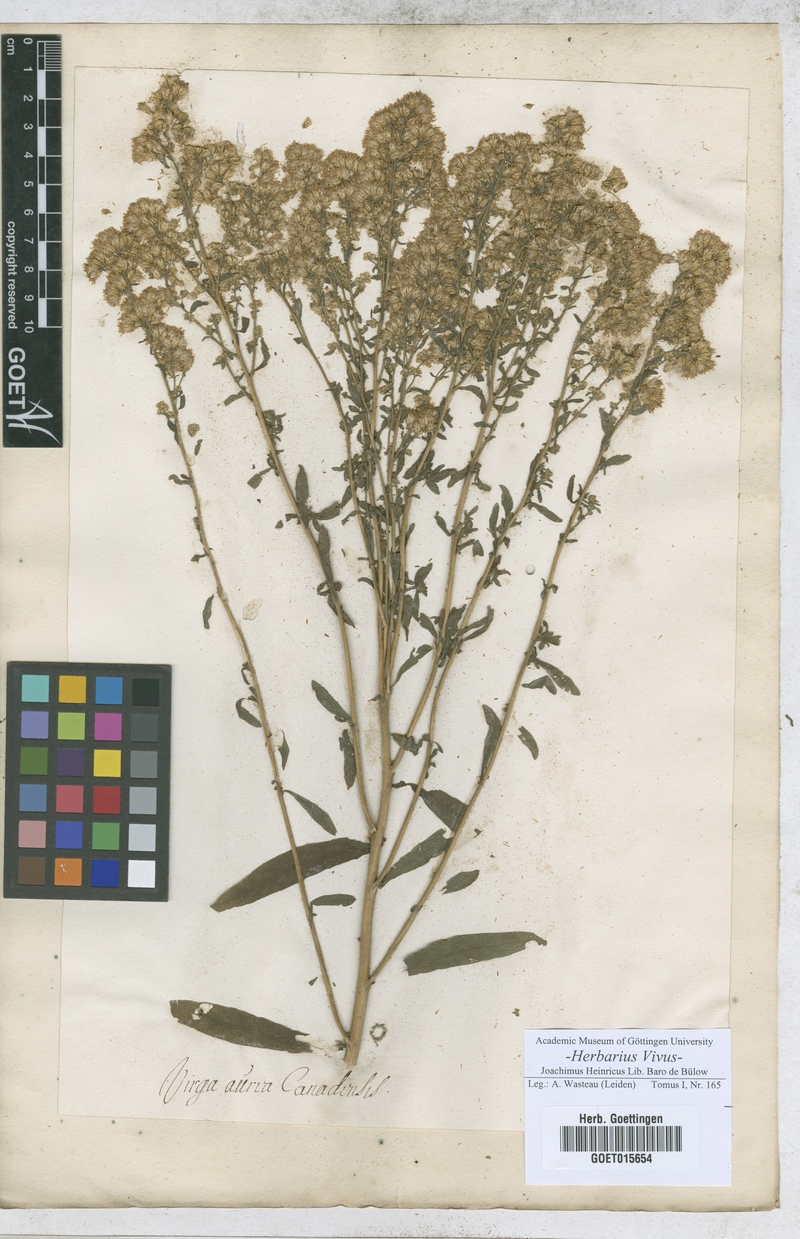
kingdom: Animalia
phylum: Arthropoda
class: Insecta
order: Lepidoptera
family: Hesperiidae
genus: Virga
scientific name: Virga
